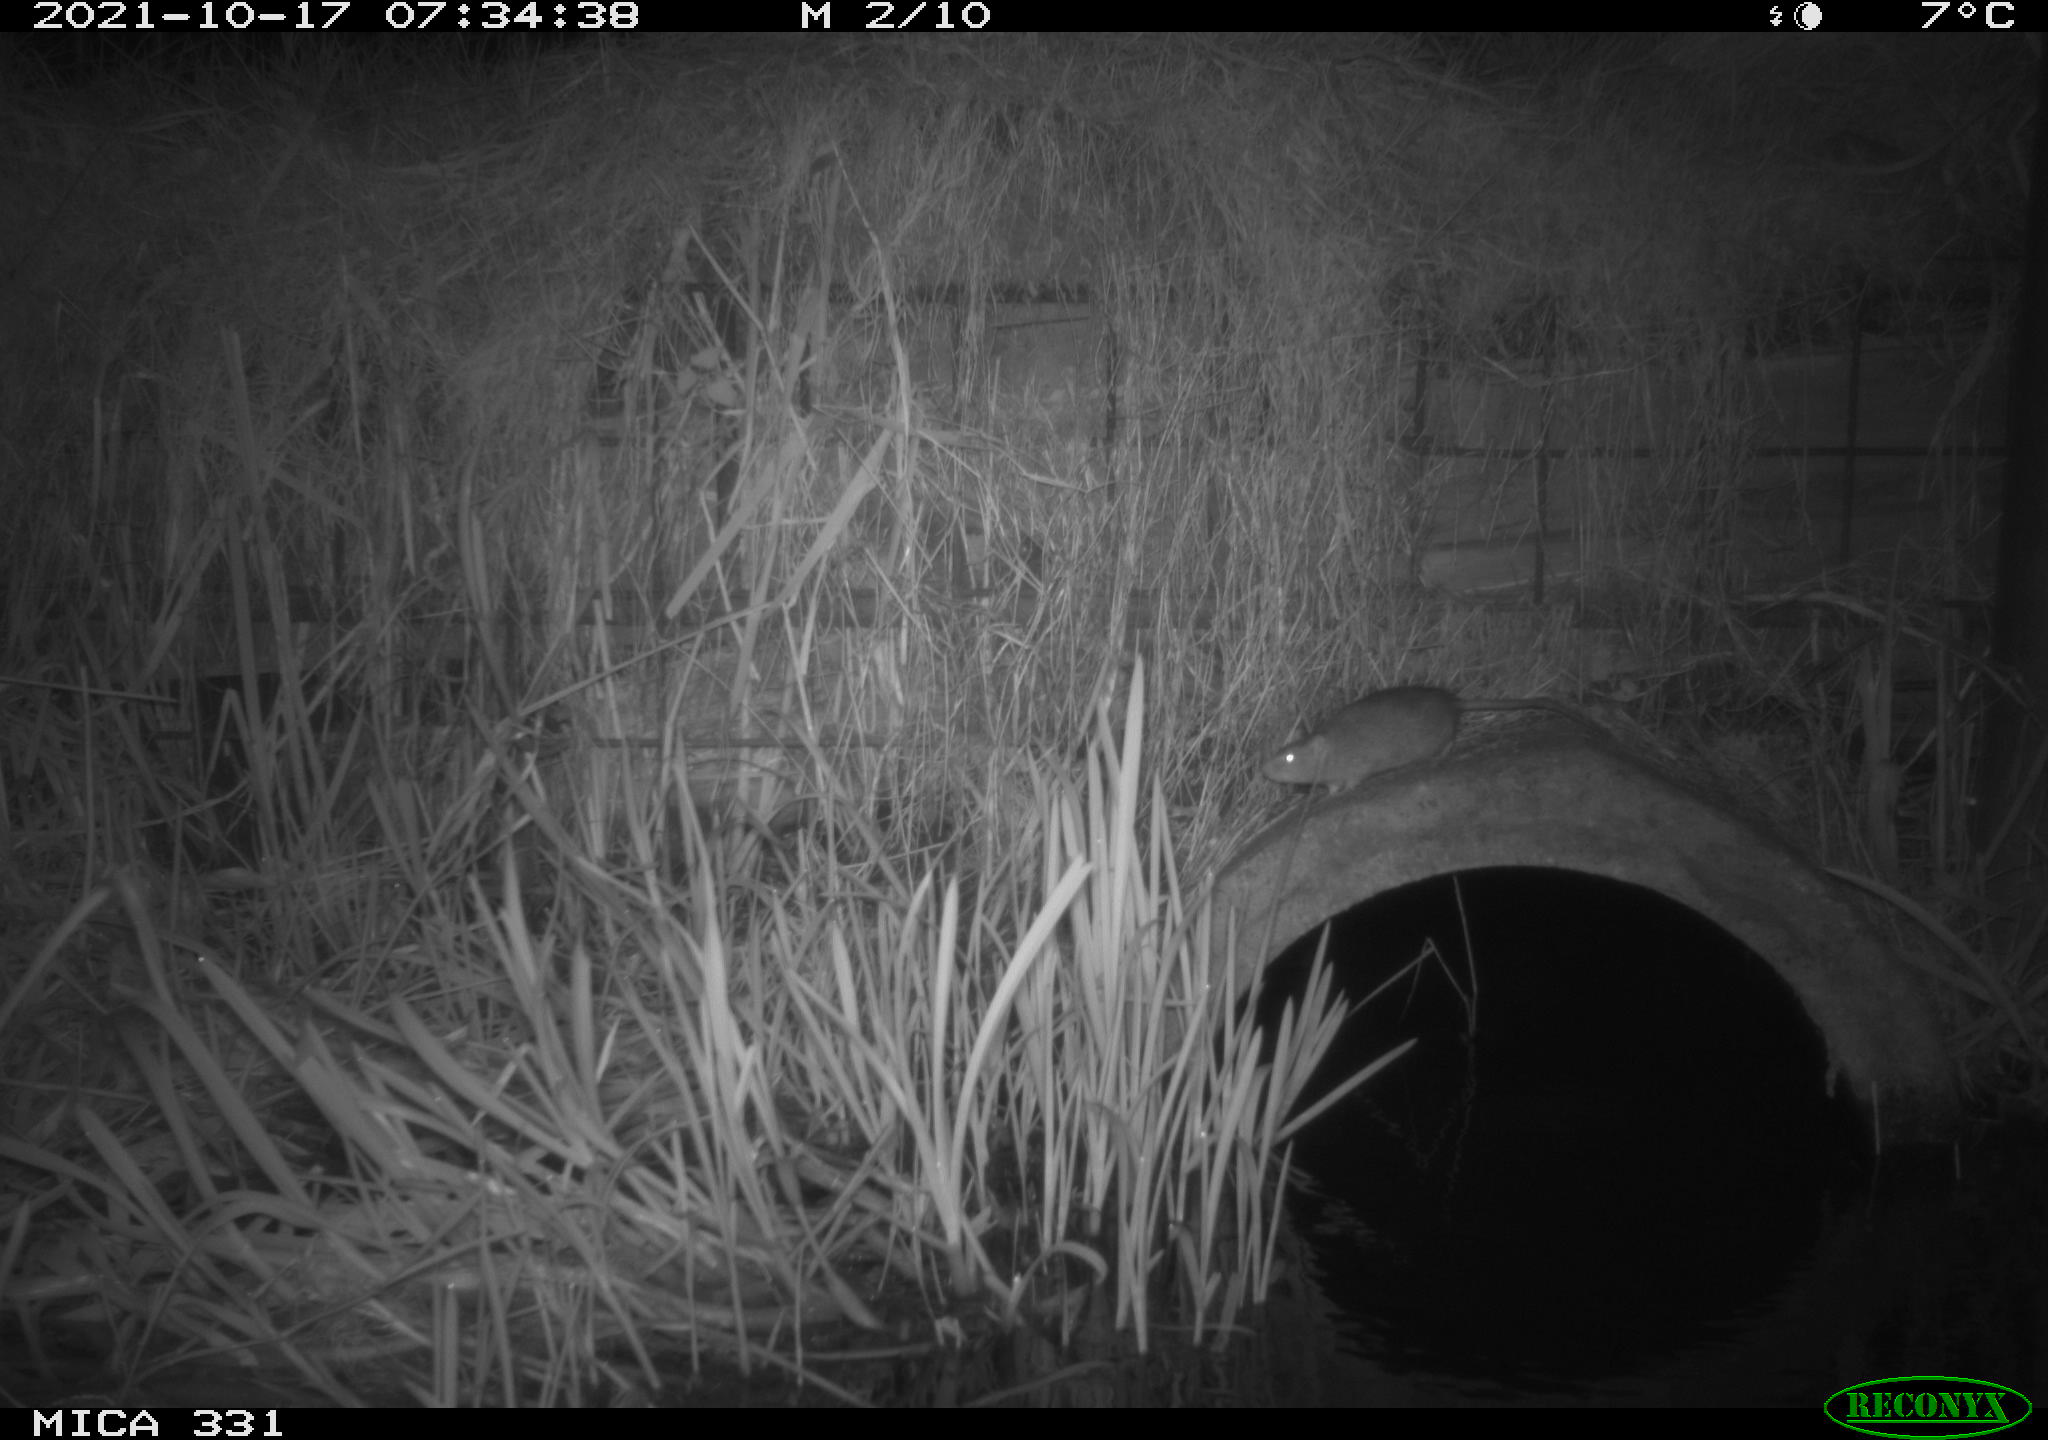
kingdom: Animalia
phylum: Chordata
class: Mammalia
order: Rodentia
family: Muridae
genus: Rattus
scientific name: Rattus norvegicus
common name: Brown rat
